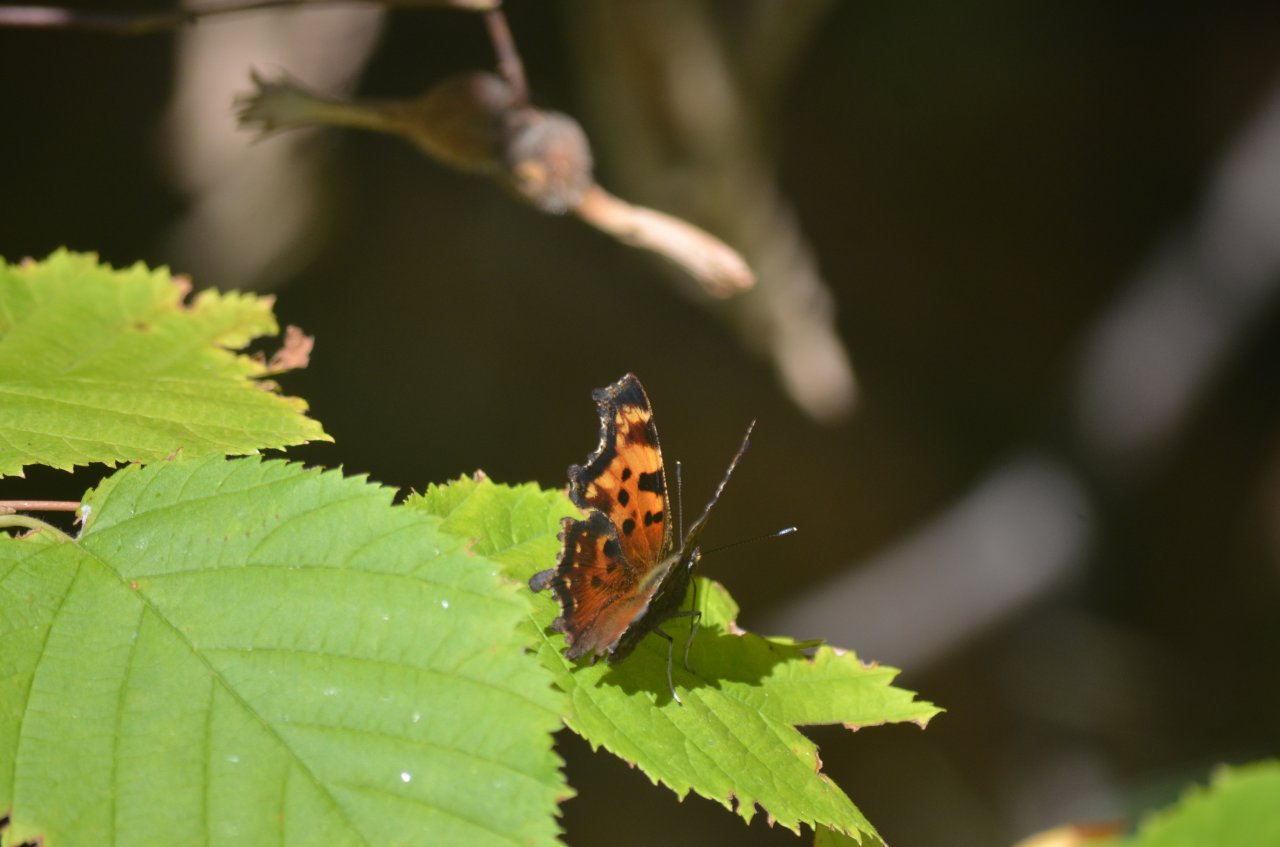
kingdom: Animalia
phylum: Arthropoda
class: Insecta
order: Lepidoptera
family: Nymphalidae
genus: Polygonia
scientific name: Polygonia faunus
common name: Green Comma
